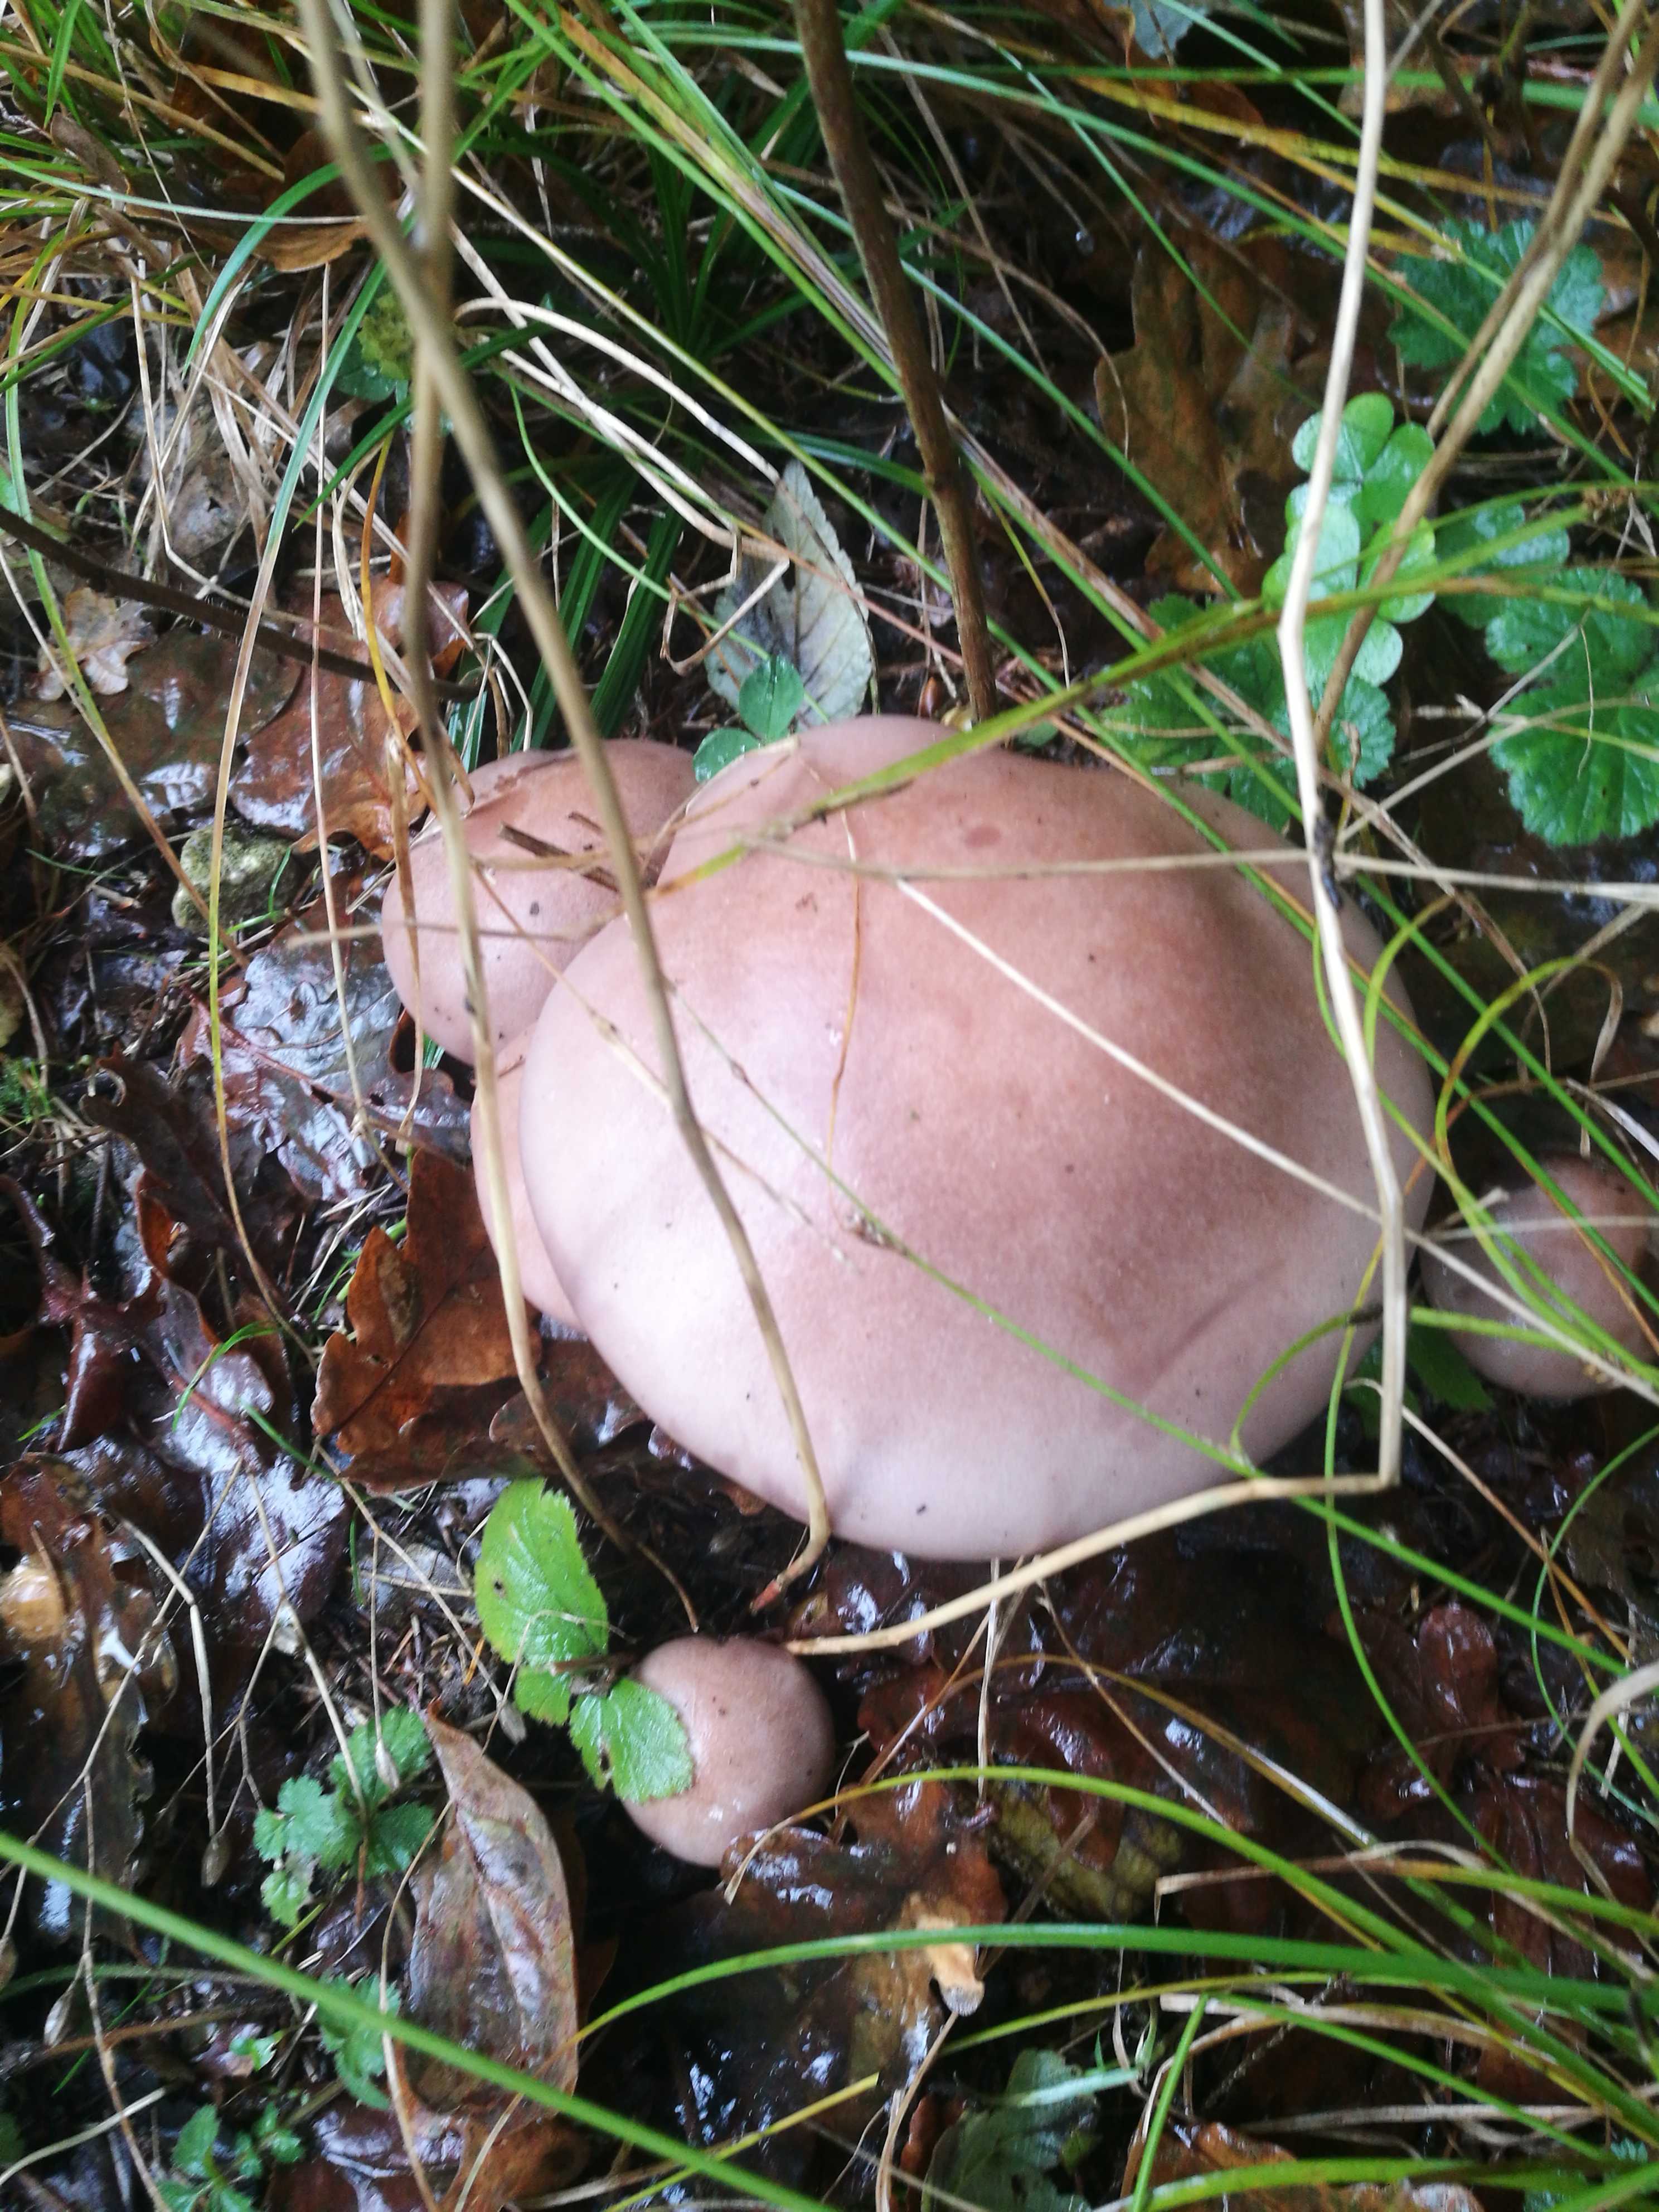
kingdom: Fungi
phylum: Basidiomycota
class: Agaricomycetes
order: Agaricales
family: Tricholomataceae
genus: Lepista
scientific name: Lepista
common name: hekseringshat
